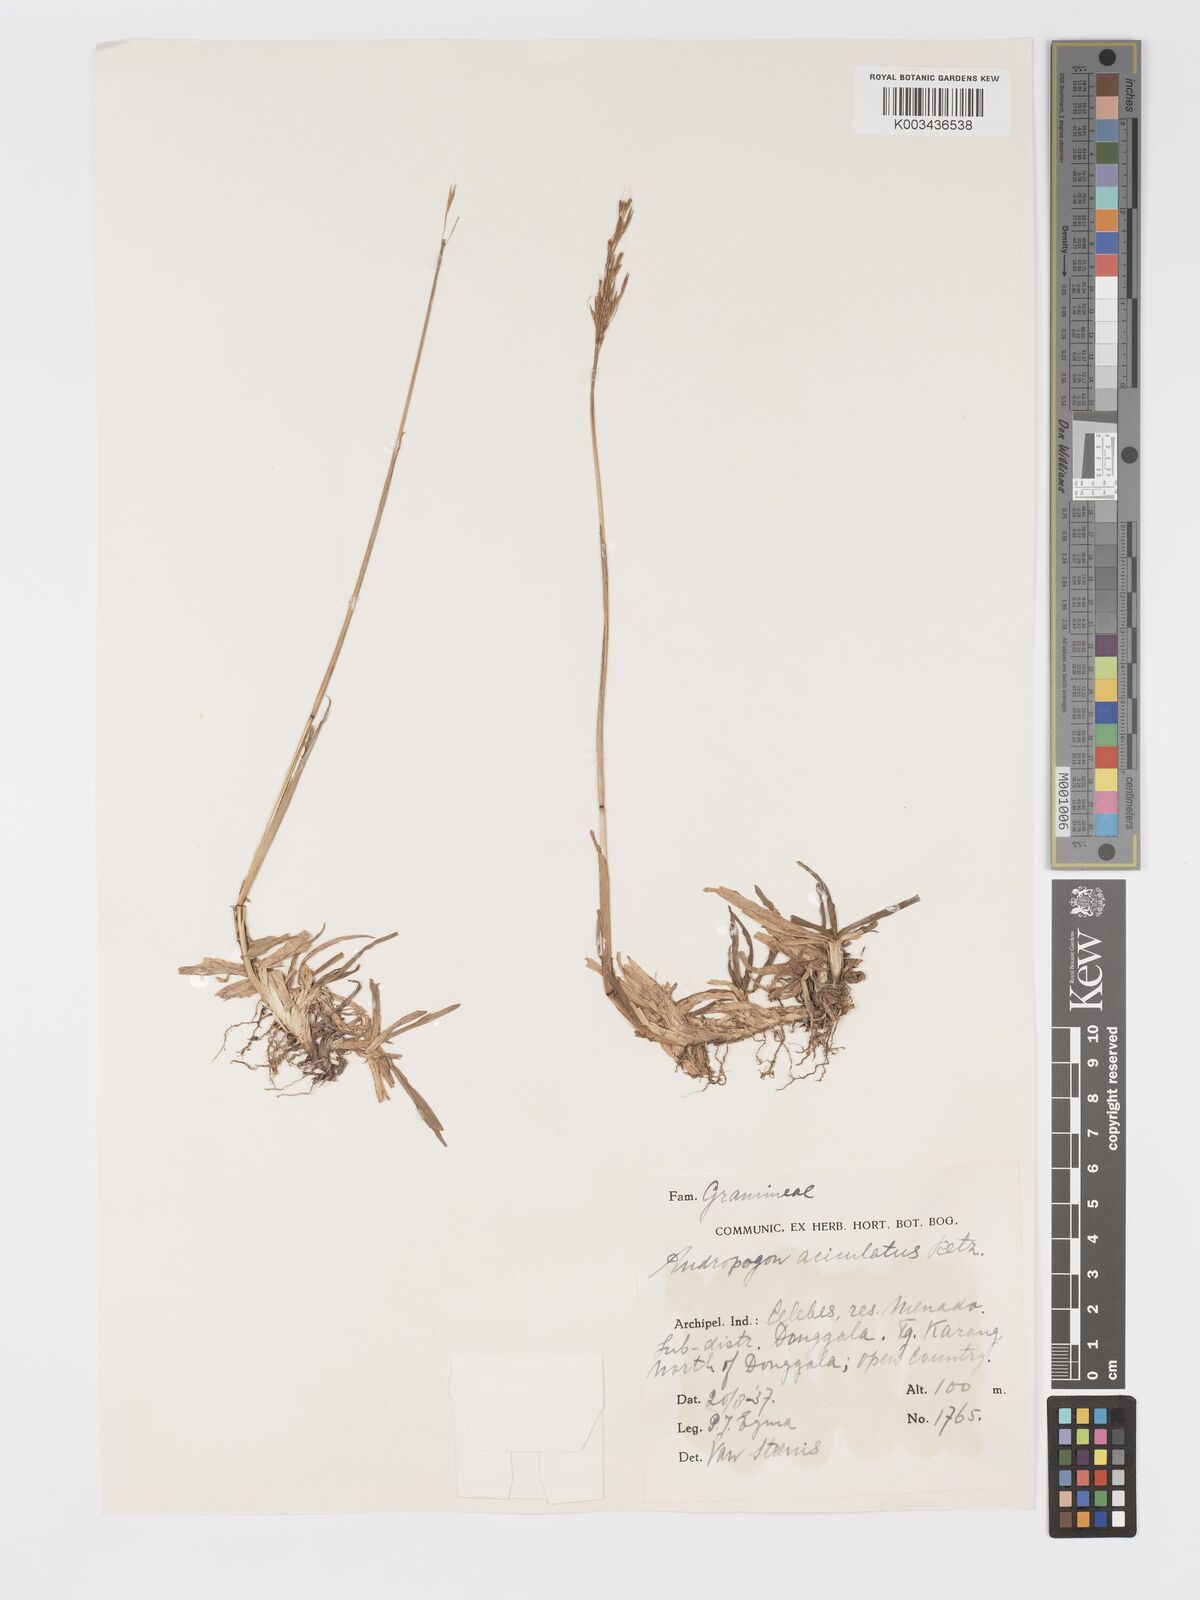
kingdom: Plantae
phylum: Tracheophyta
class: Liliopsida
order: Poales
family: Poaceae
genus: Chrysopogon
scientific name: Chrysopogon aciculatus
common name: Pilipiliula
